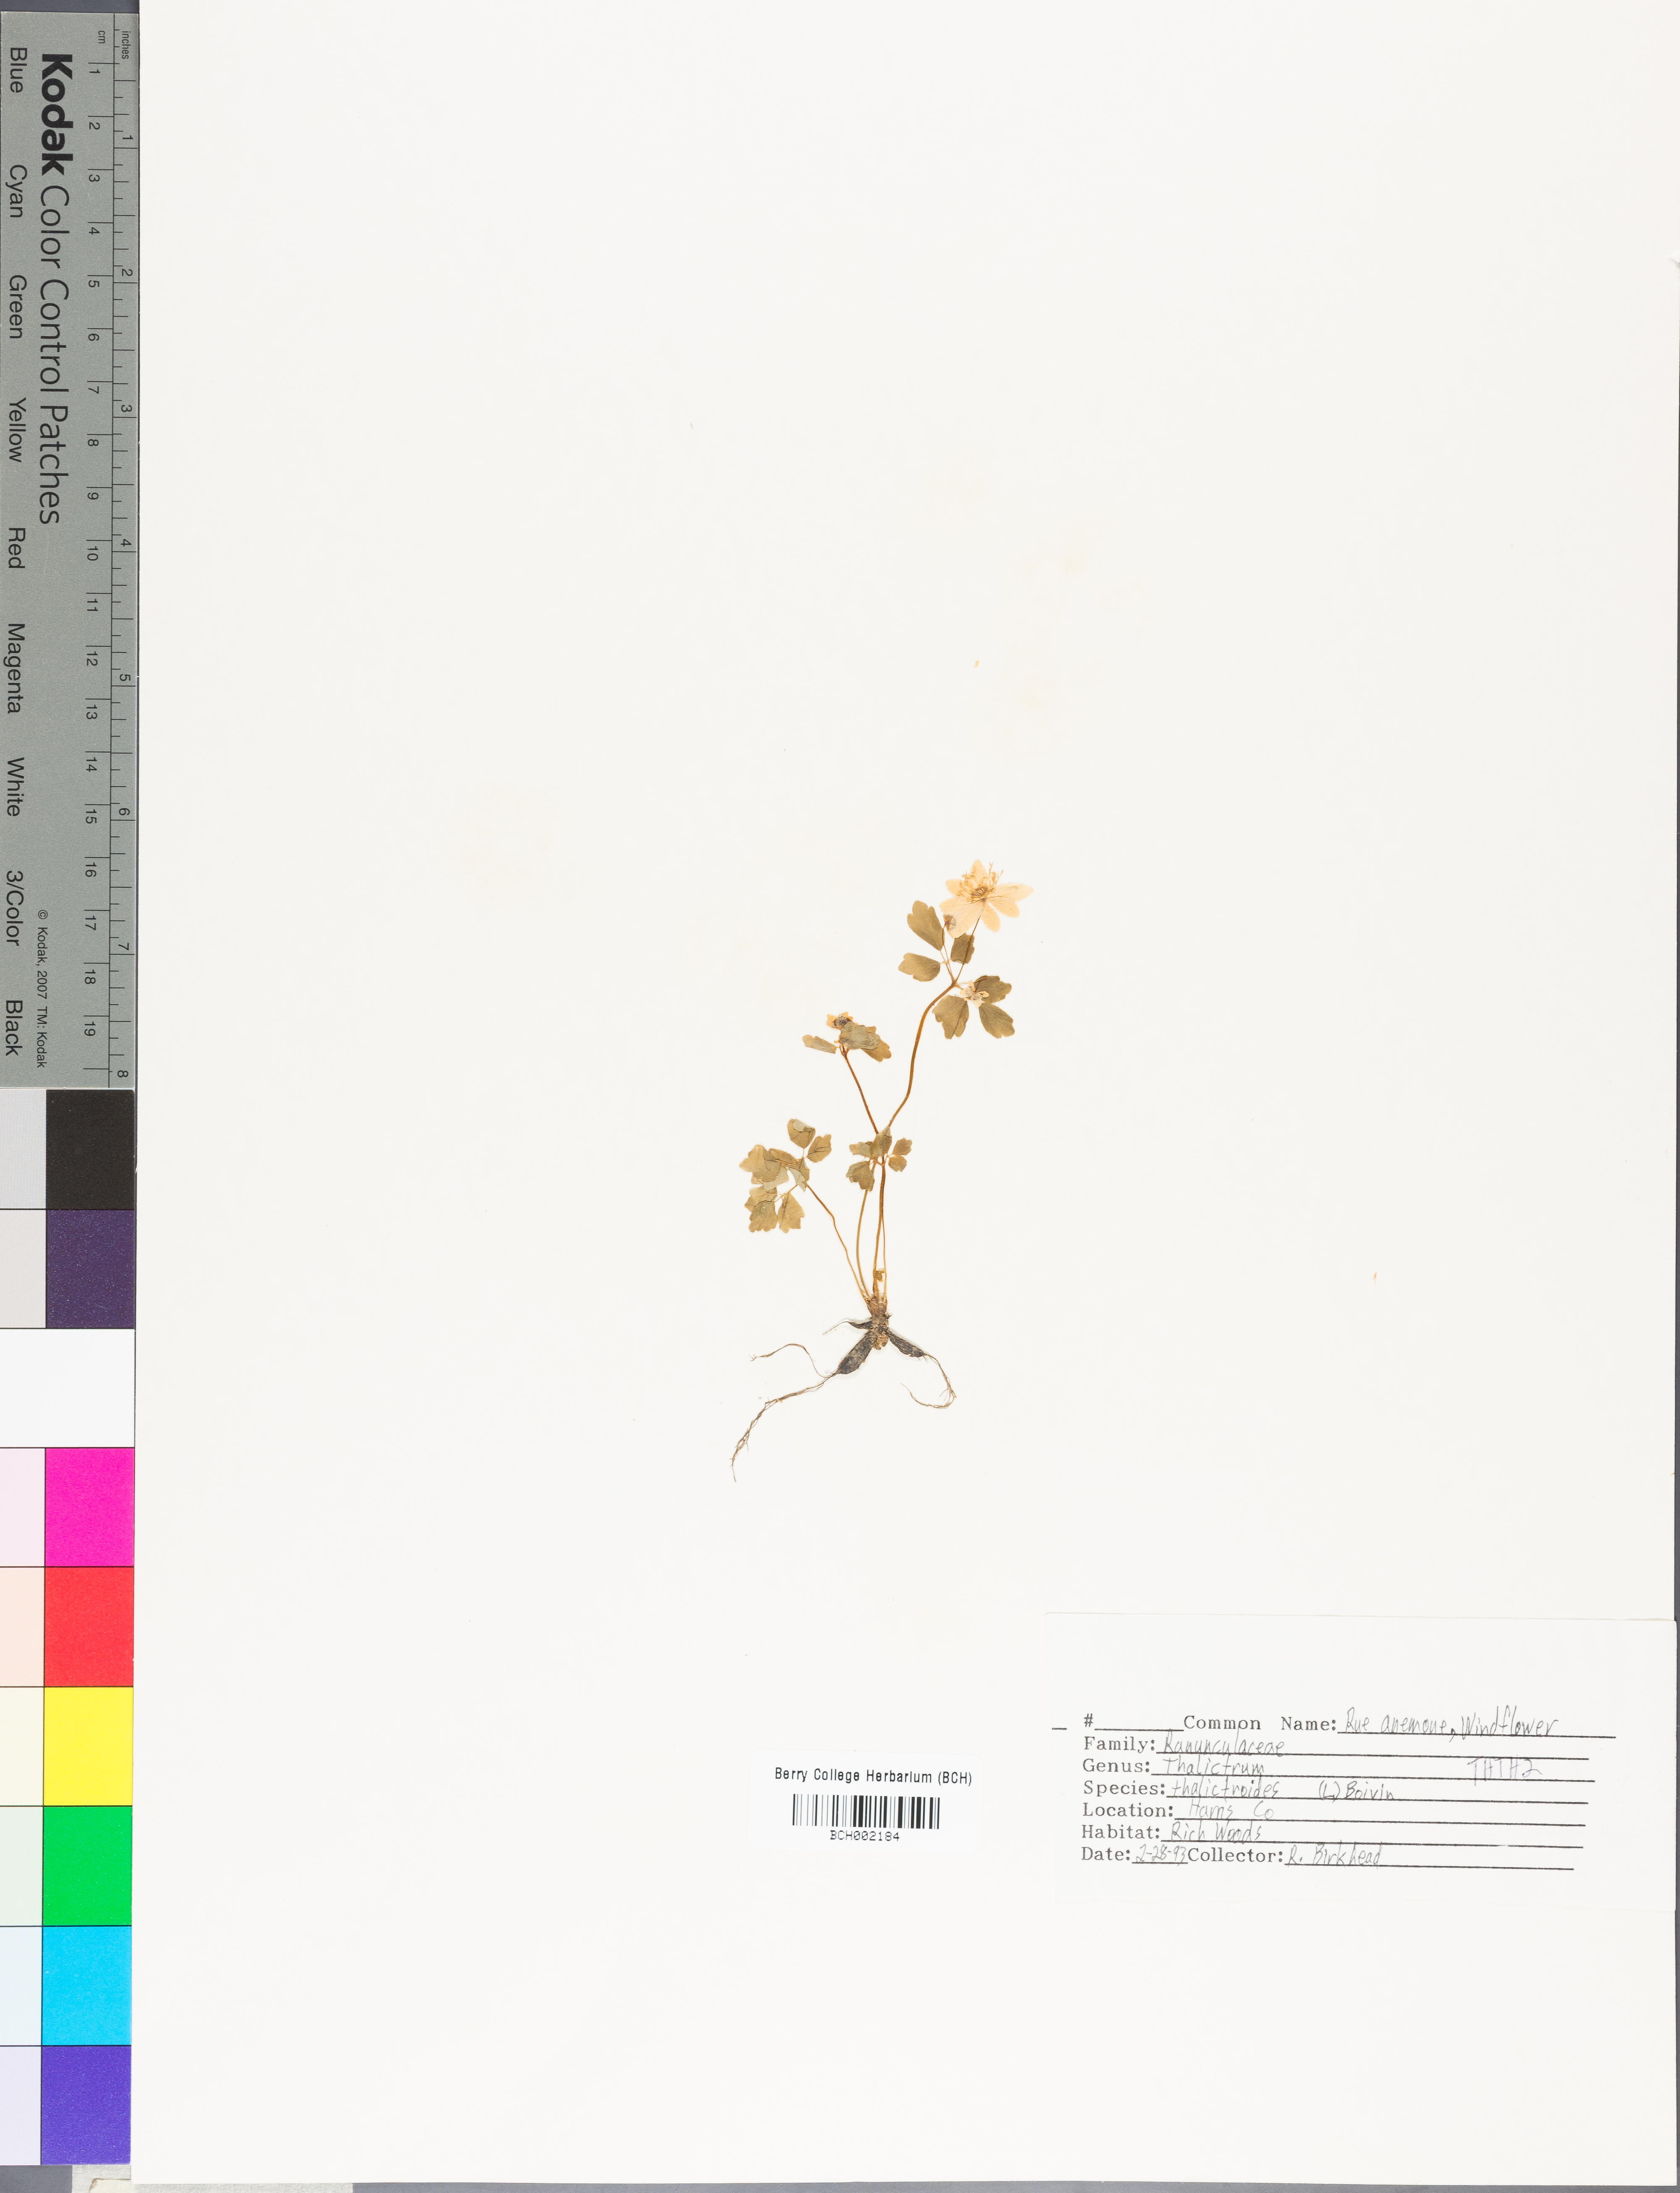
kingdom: Plantae
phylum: Tracheophyta
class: Magnoliopsida
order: Ranunculales
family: Ranunculaceae
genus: Thalictrum
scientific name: Thalictrum thalictroides
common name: Rue-anemone
